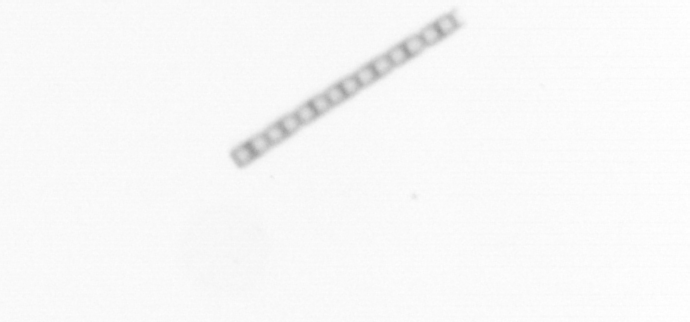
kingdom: Chromista
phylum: Ochrophyta
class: Bacillariophyceae
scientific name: Bacillariophyceae
